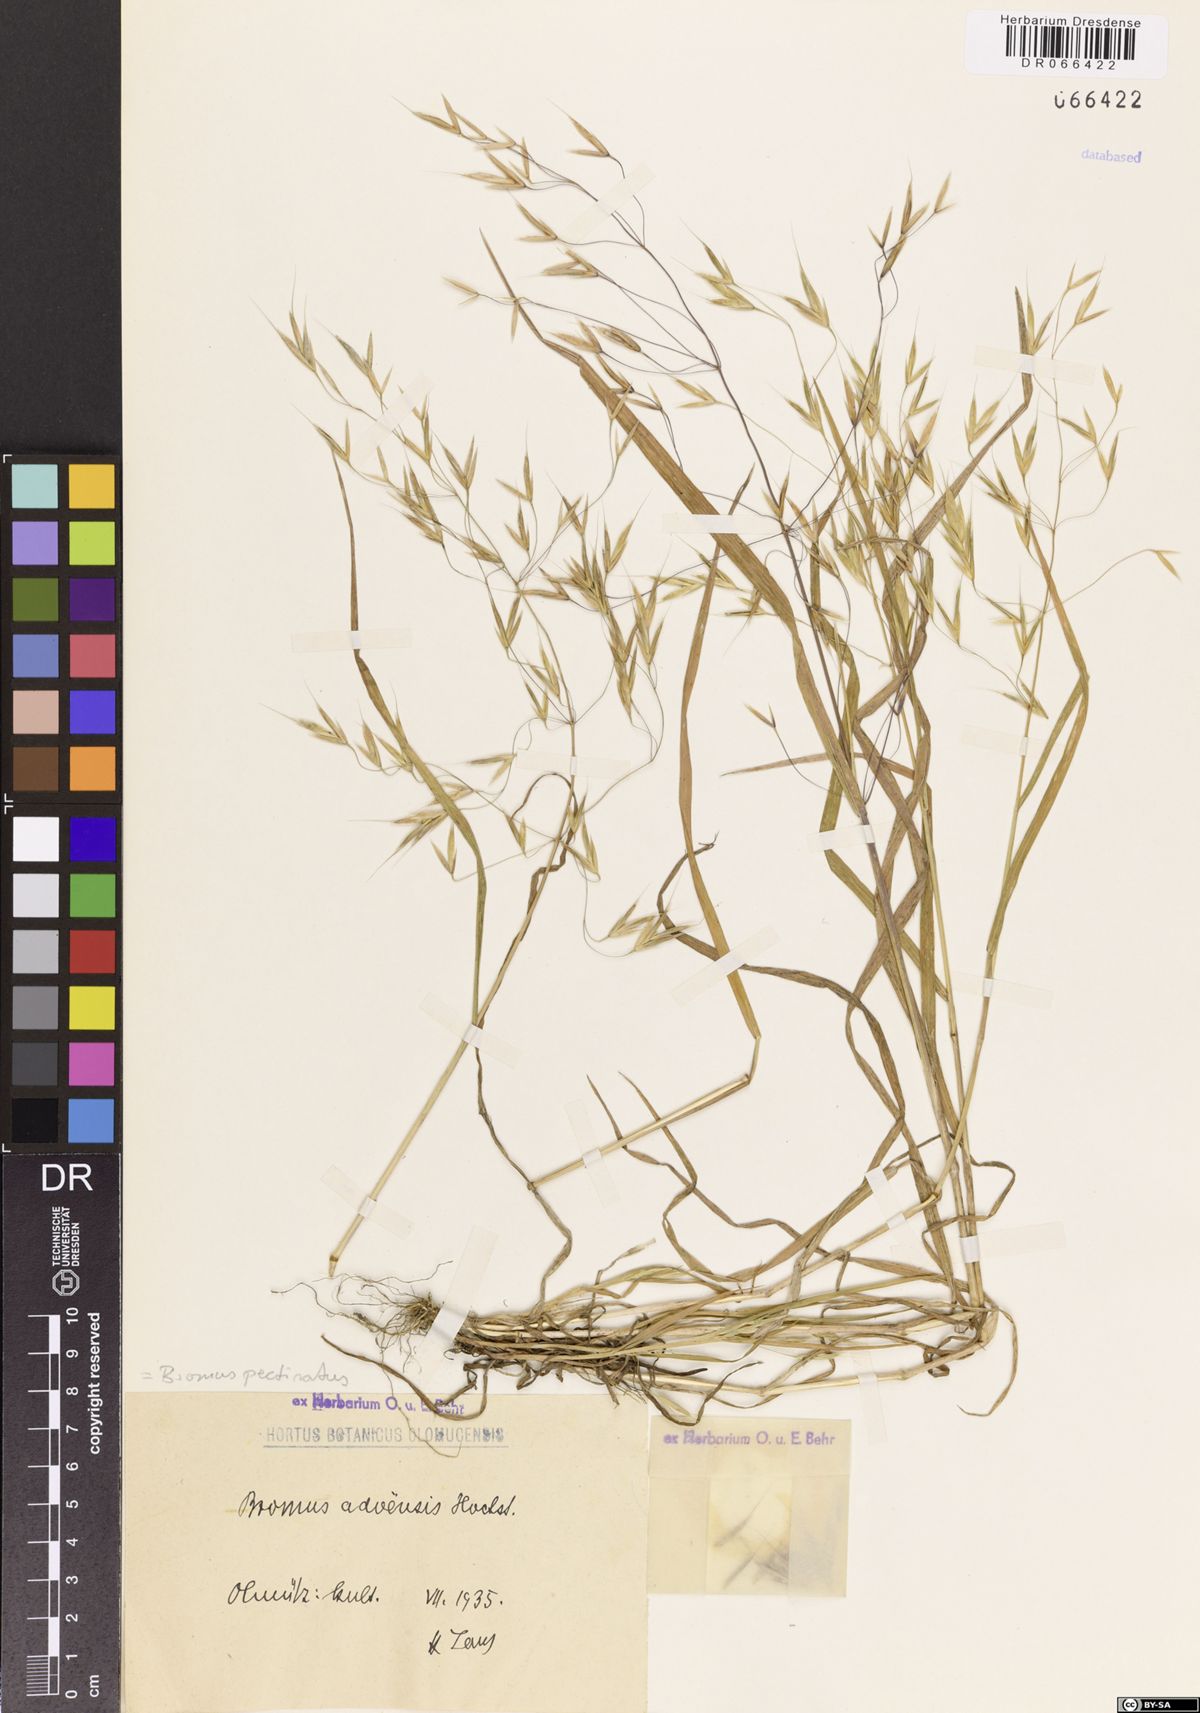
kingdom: Plantae
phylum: Tracheophyta
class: Liliopsida
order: Poales
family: Poaceae
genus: Bromus
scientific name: Bromus pectinatus
